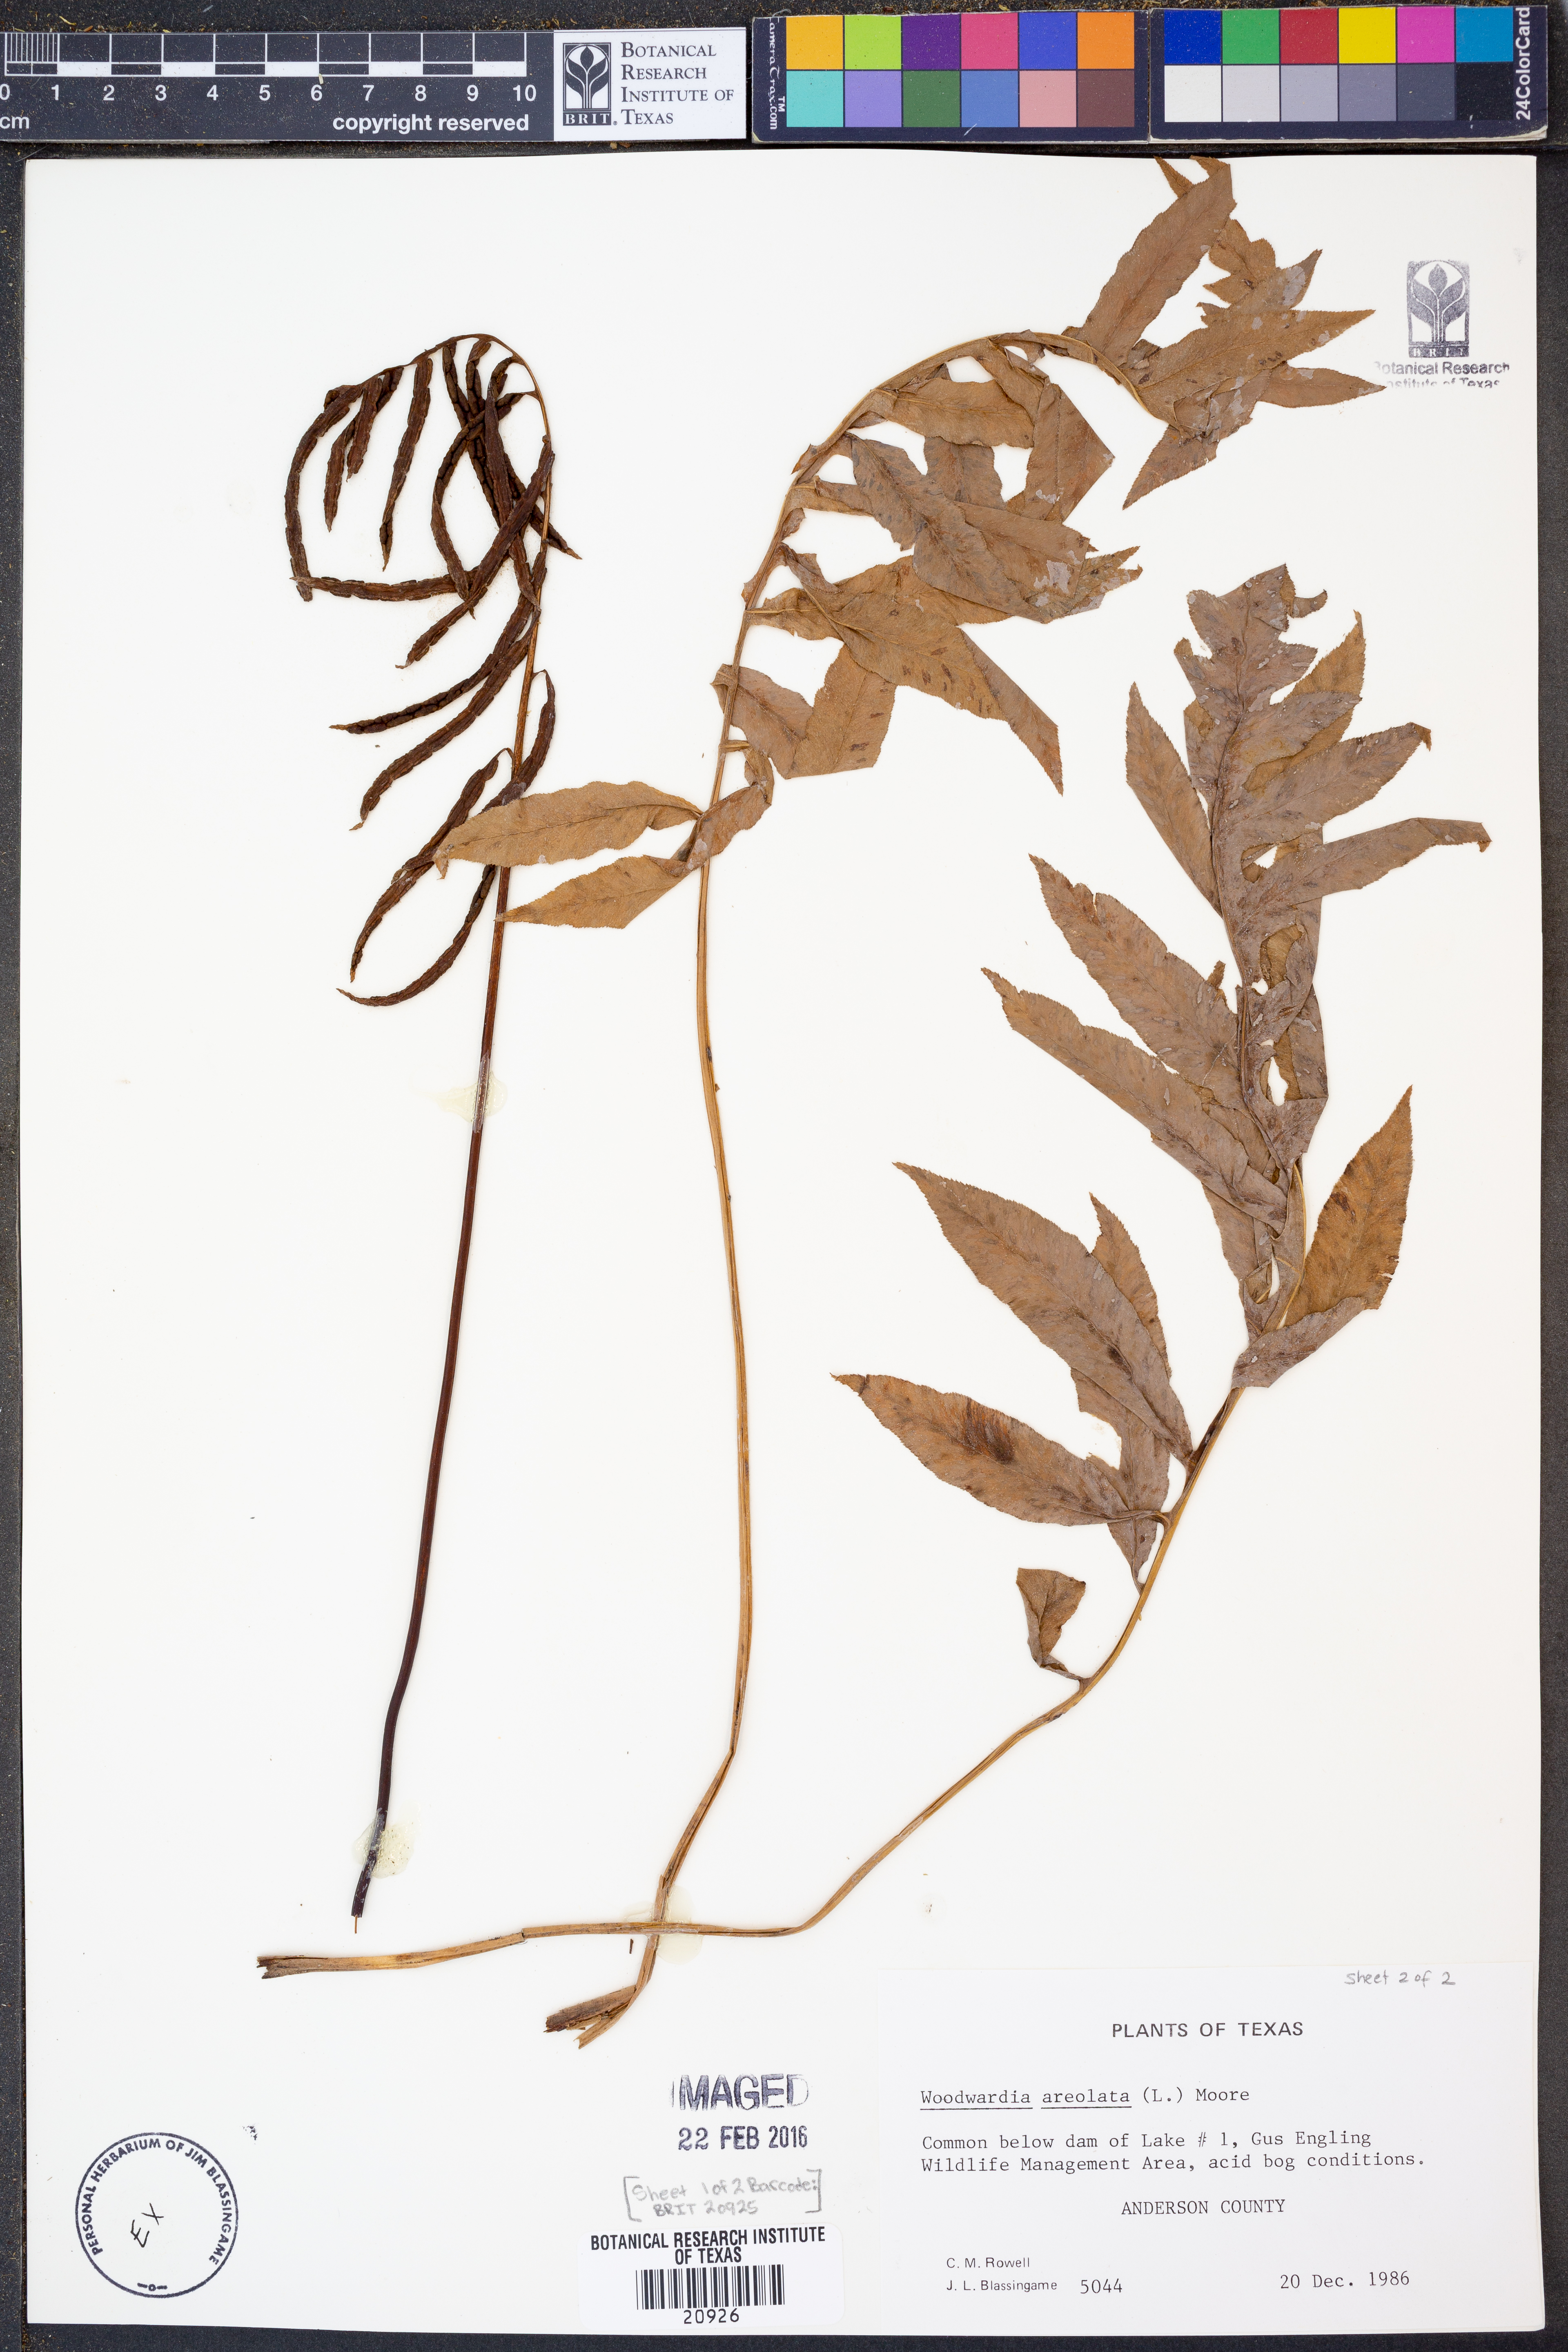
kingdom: Plantae
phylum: Tracheophyta
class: Polypodiopsida
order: Polypodiales
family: Blechnaceae
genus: Lorinseria
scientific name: Lorinseria areolata
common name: Dwarf chain fern
